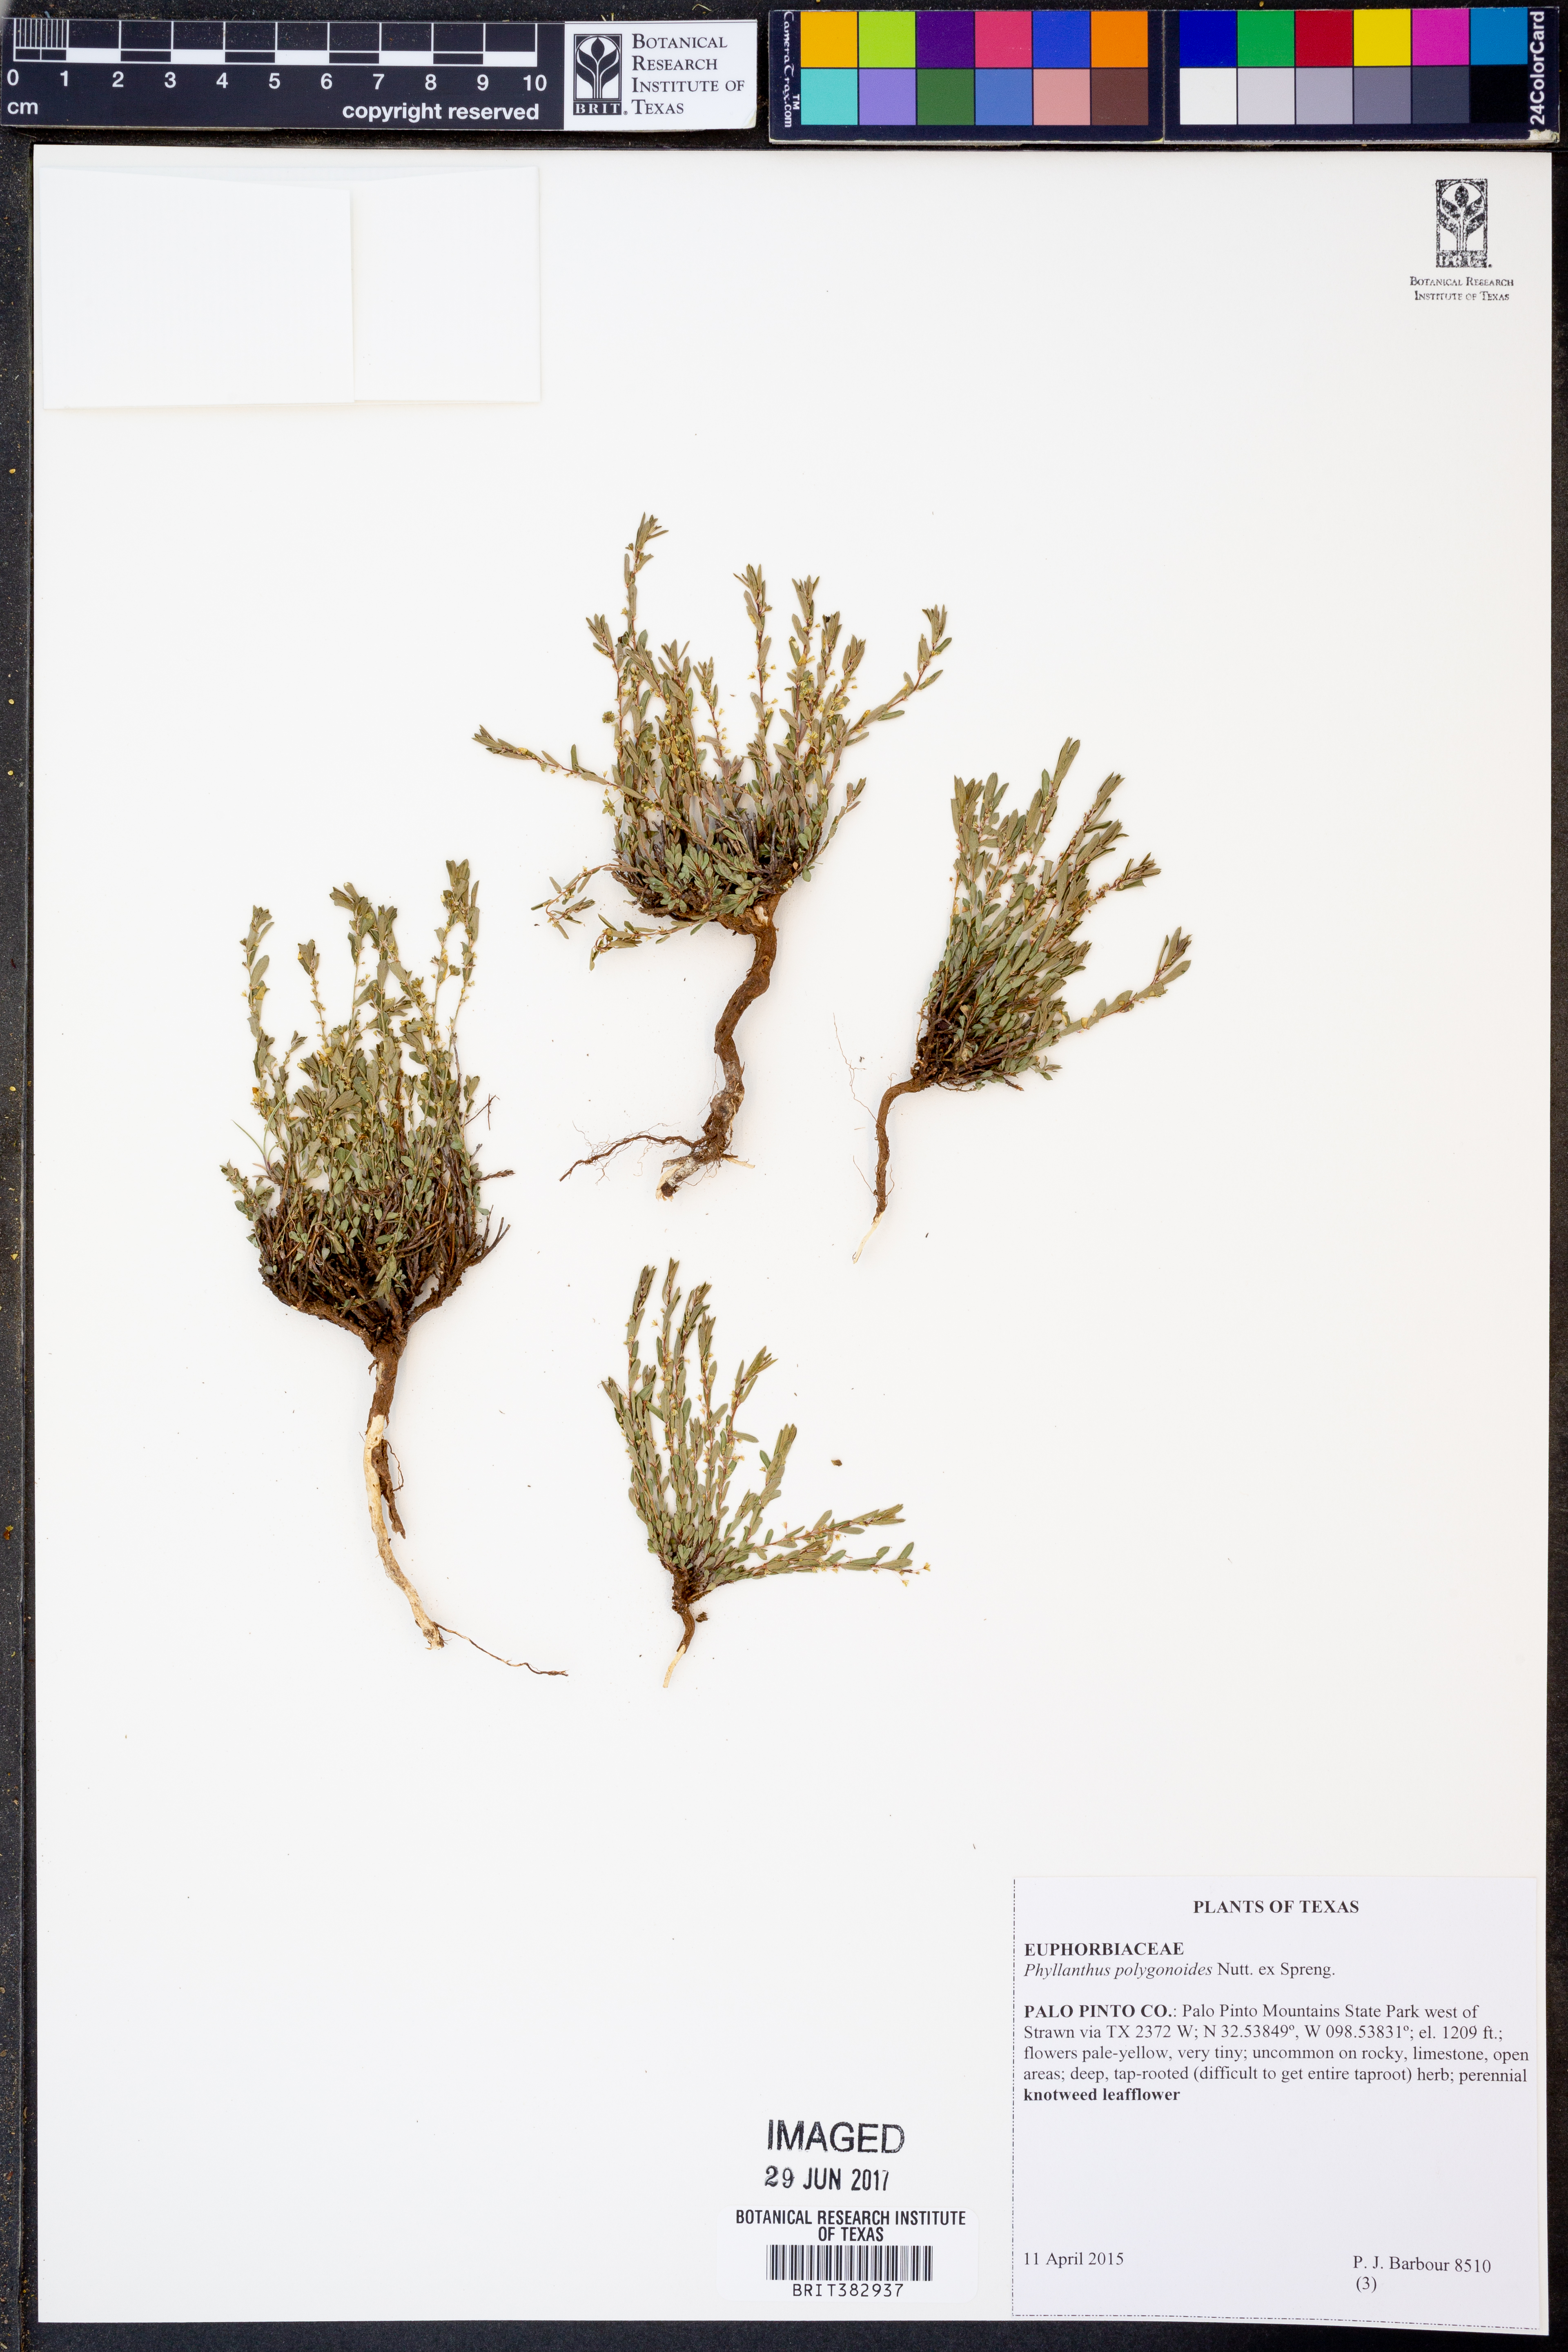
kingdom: Plantae
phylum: Tracheophyta
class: Magnoliopsida
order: Malpighiales
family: Phyllanthaceae
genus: Phyllanthus
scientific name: Phyllanthus polygonoides
